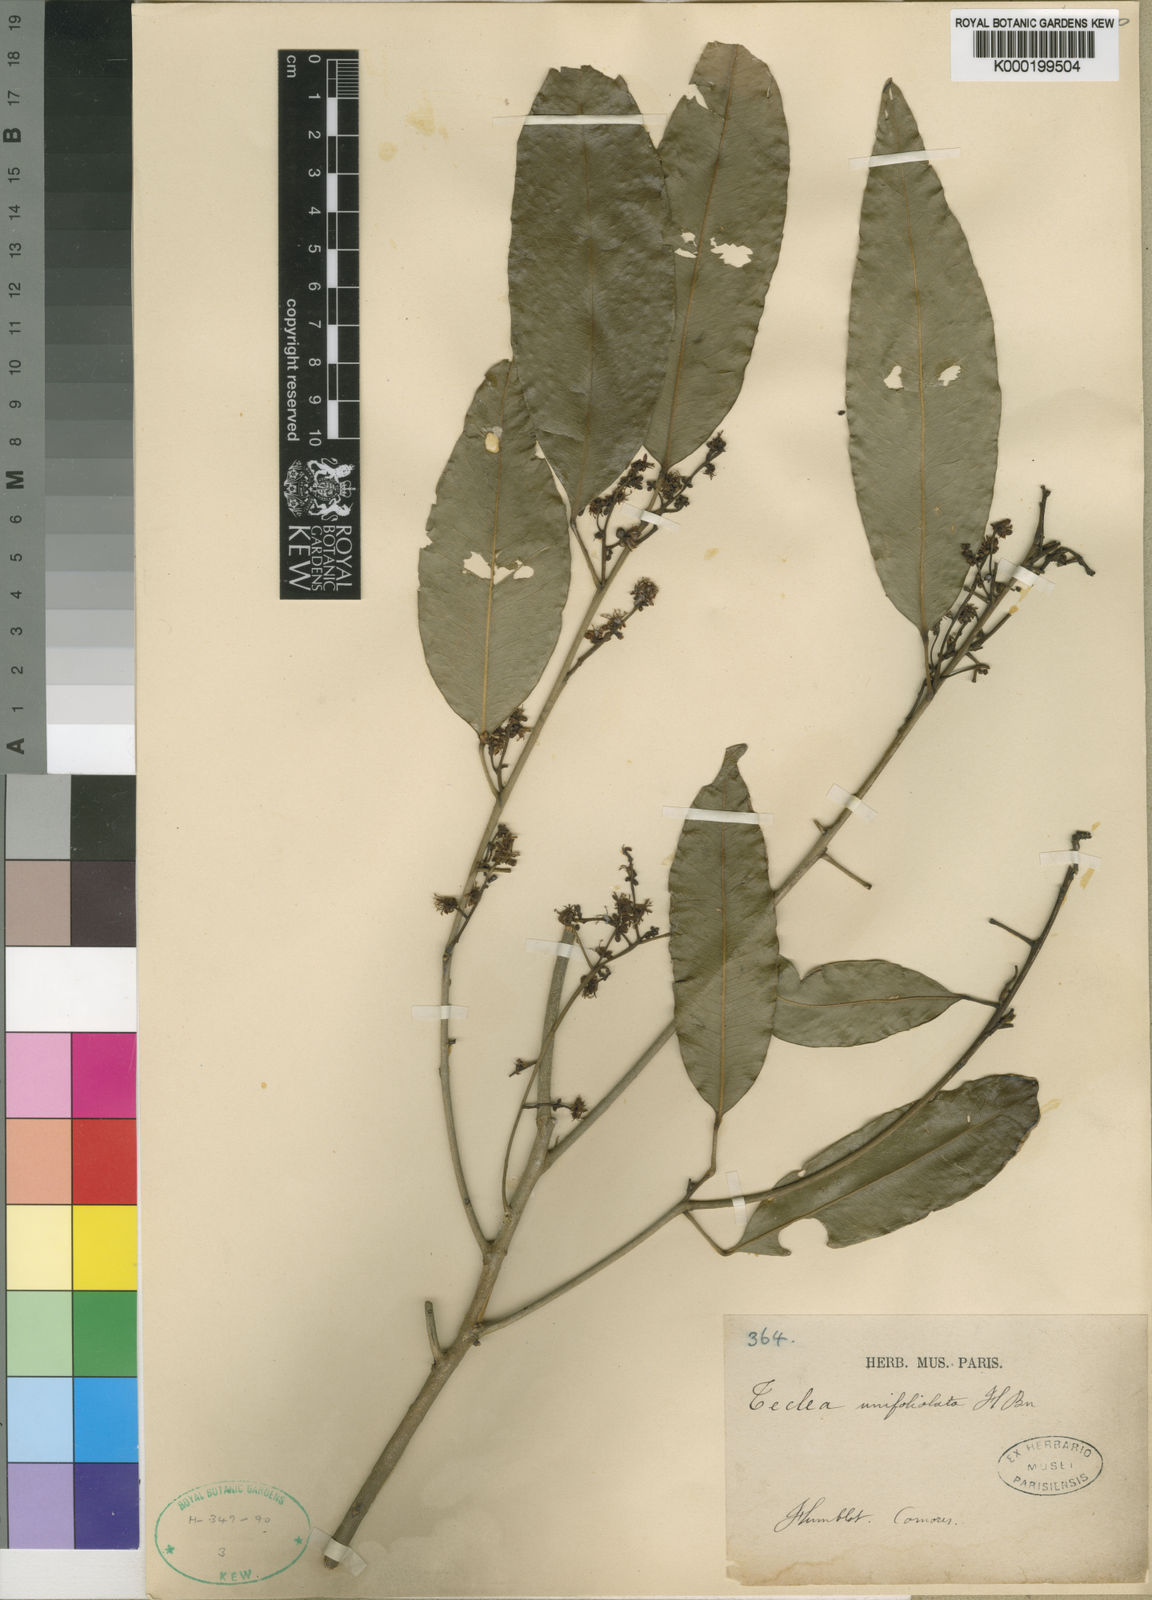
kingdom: Plantae
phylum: Tracheophyta
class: Magnoliopsida
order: Sapindales
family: Rutaceae
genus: Vepris
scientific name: Vepris unifoliolata
